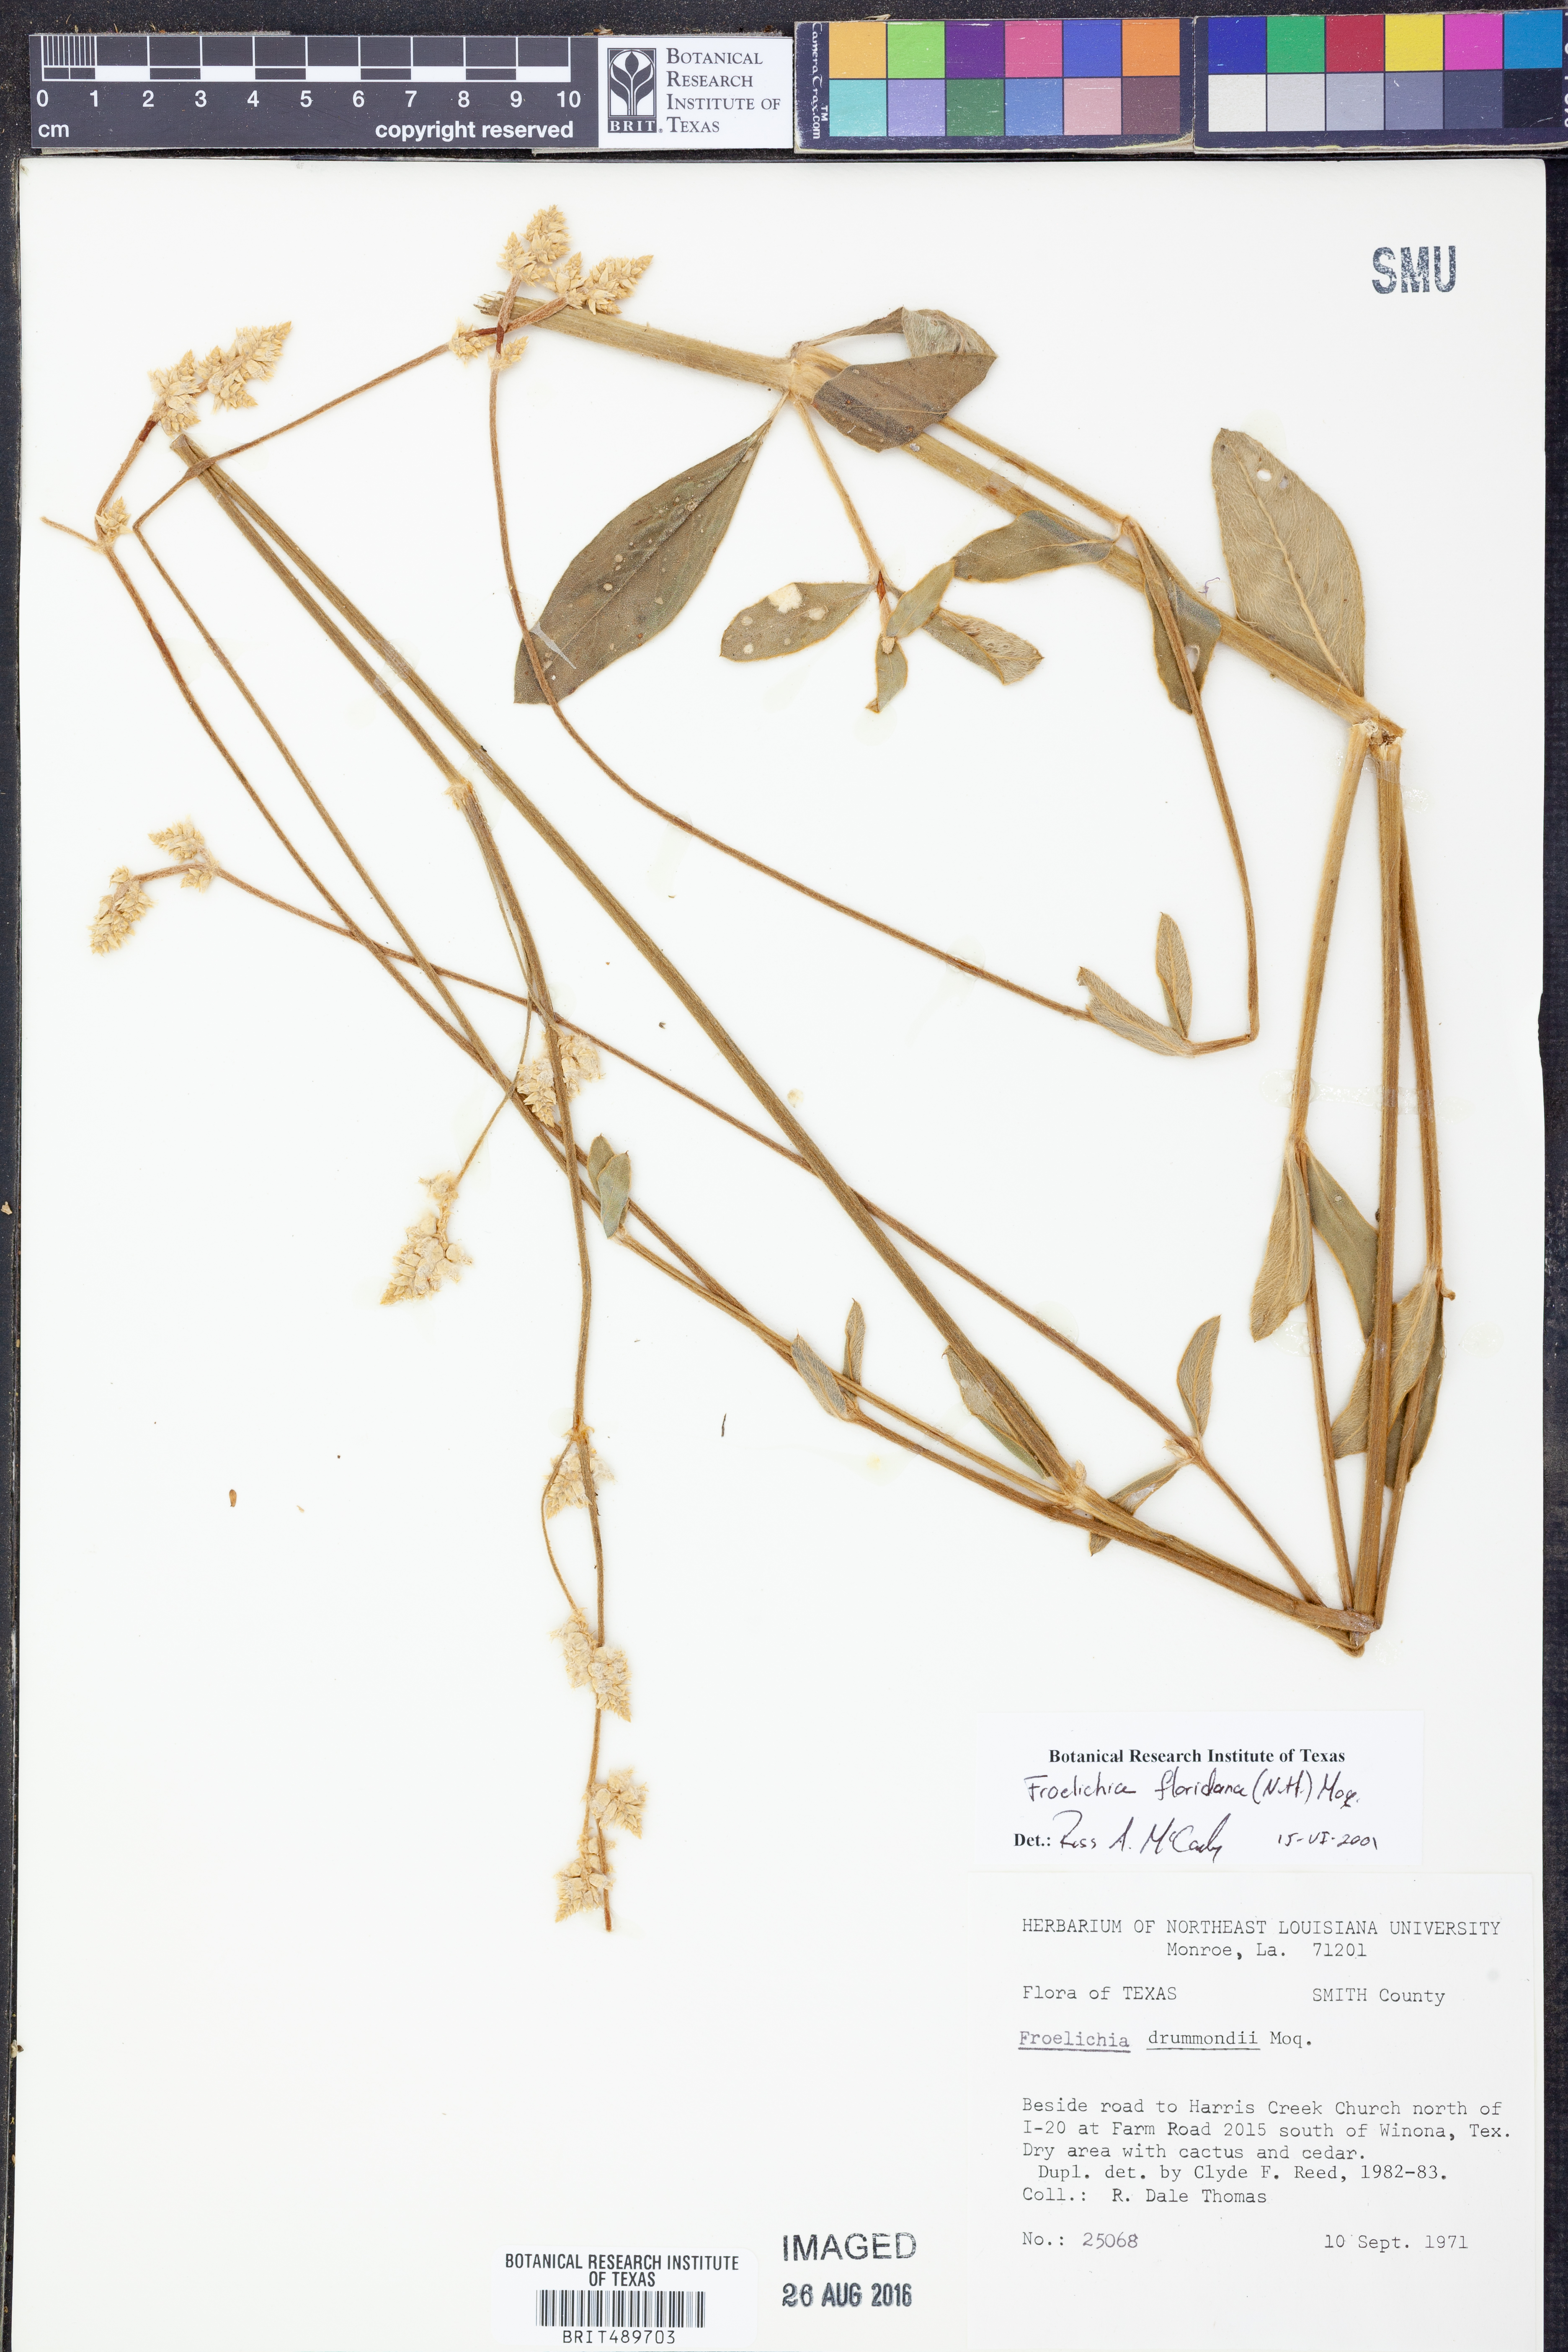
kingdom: Plantae
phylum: Tracheophyta
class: Magnoliopsida
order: Caryophyllales
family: Amaranthaceae
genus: Froelichia
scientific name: Froelichia floridana
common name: Florida snake-cotton
